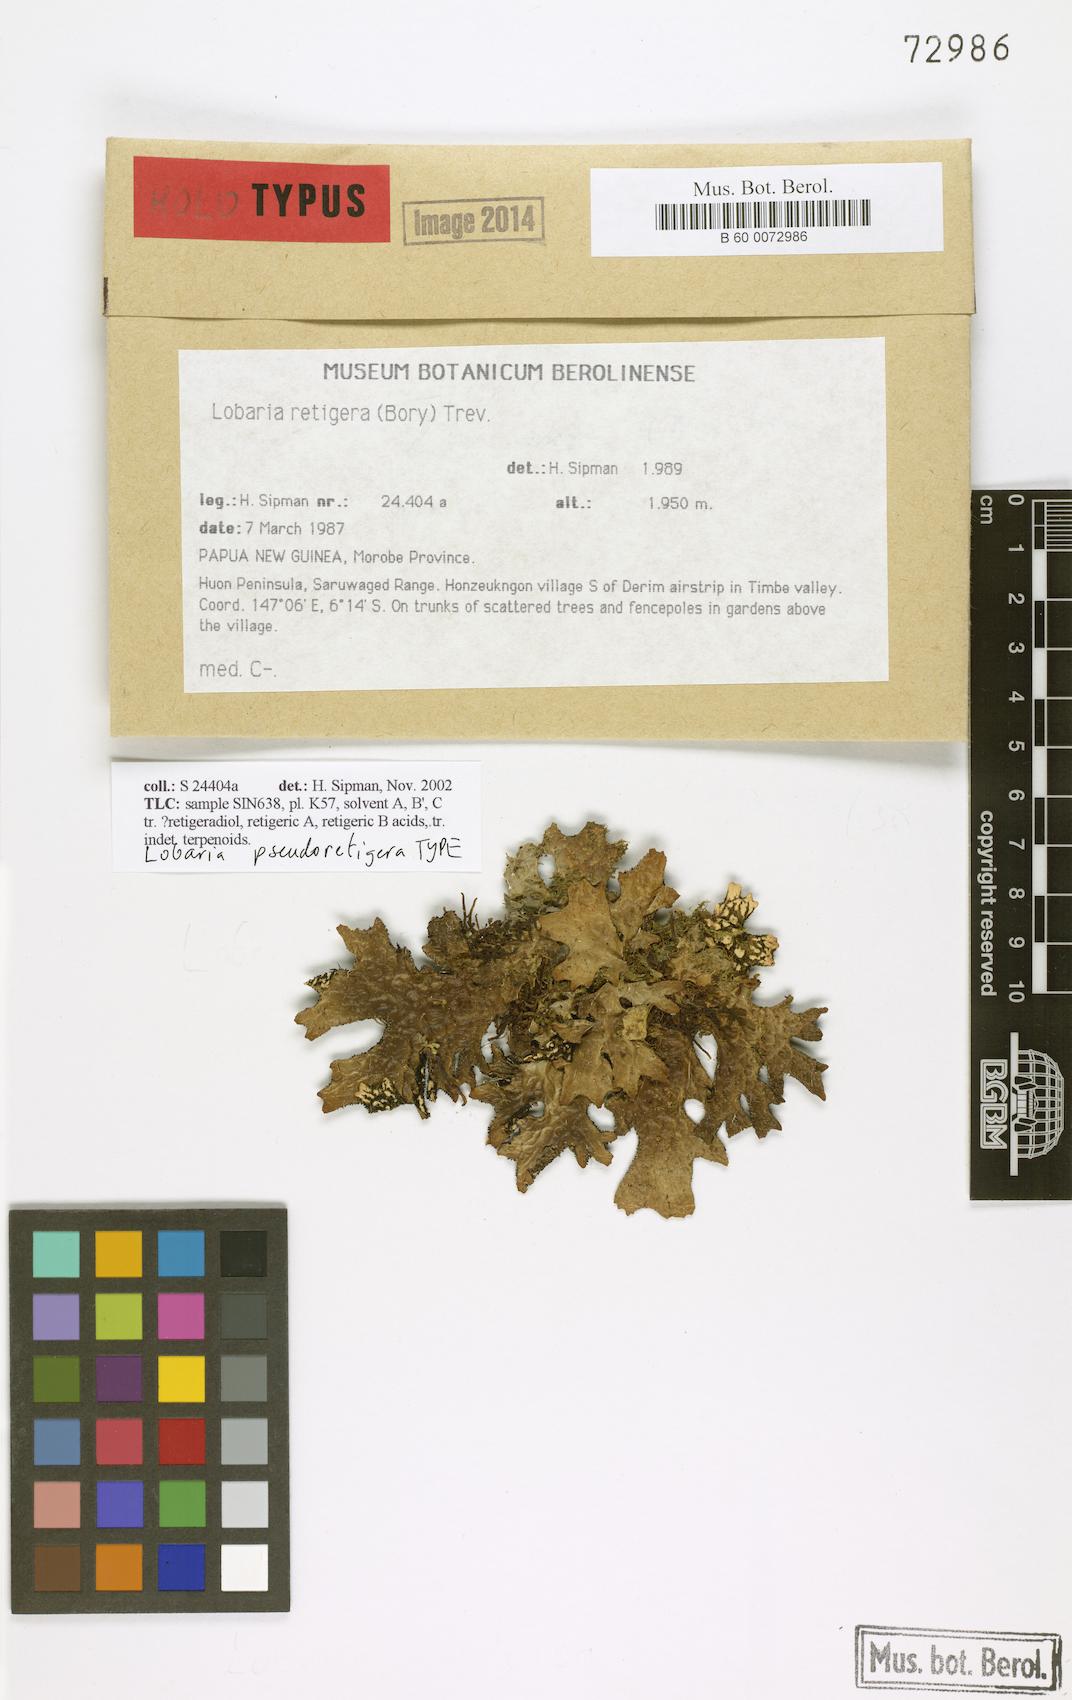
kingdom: Fungi
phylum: Ascomycota
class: Lecanoromycetes
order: Peltigerales
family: Lobariaceae
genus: Lobaria
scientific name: Lobaria pseudoretigera
